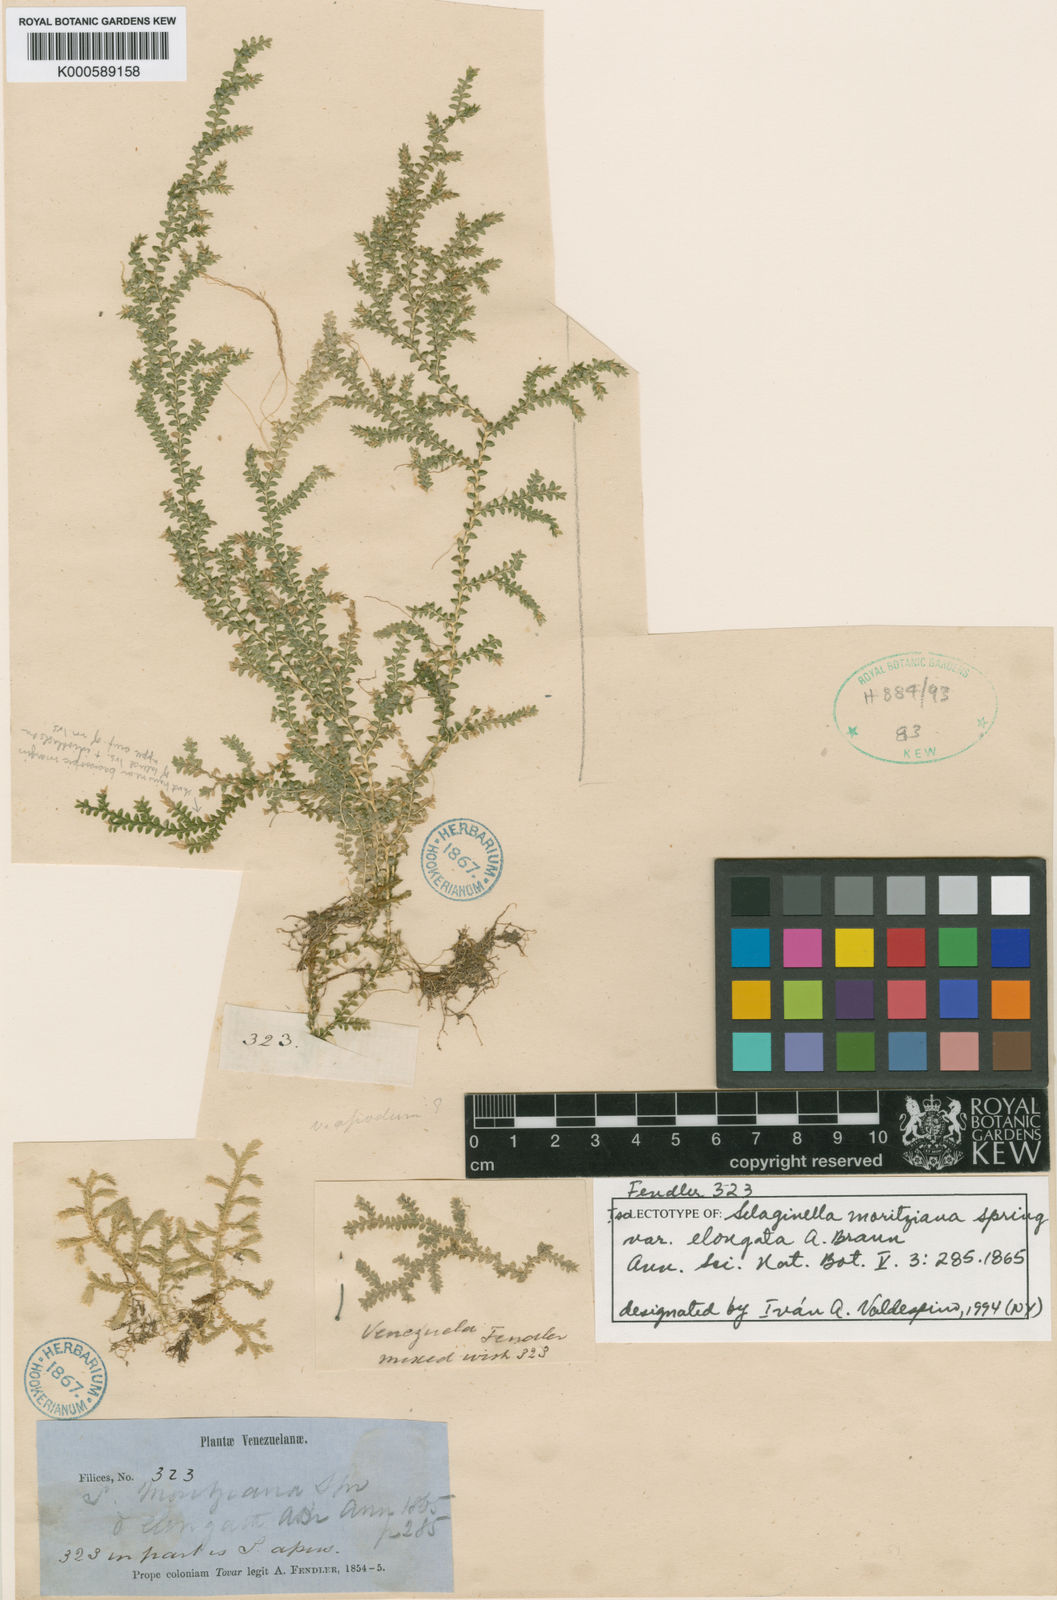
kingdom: Plantae
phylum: Tracheophyta
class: Lycopodiopsida
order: Selaginellales
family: Selaginellaceae
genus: Selaginella
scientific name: Selaginella cavifolia
